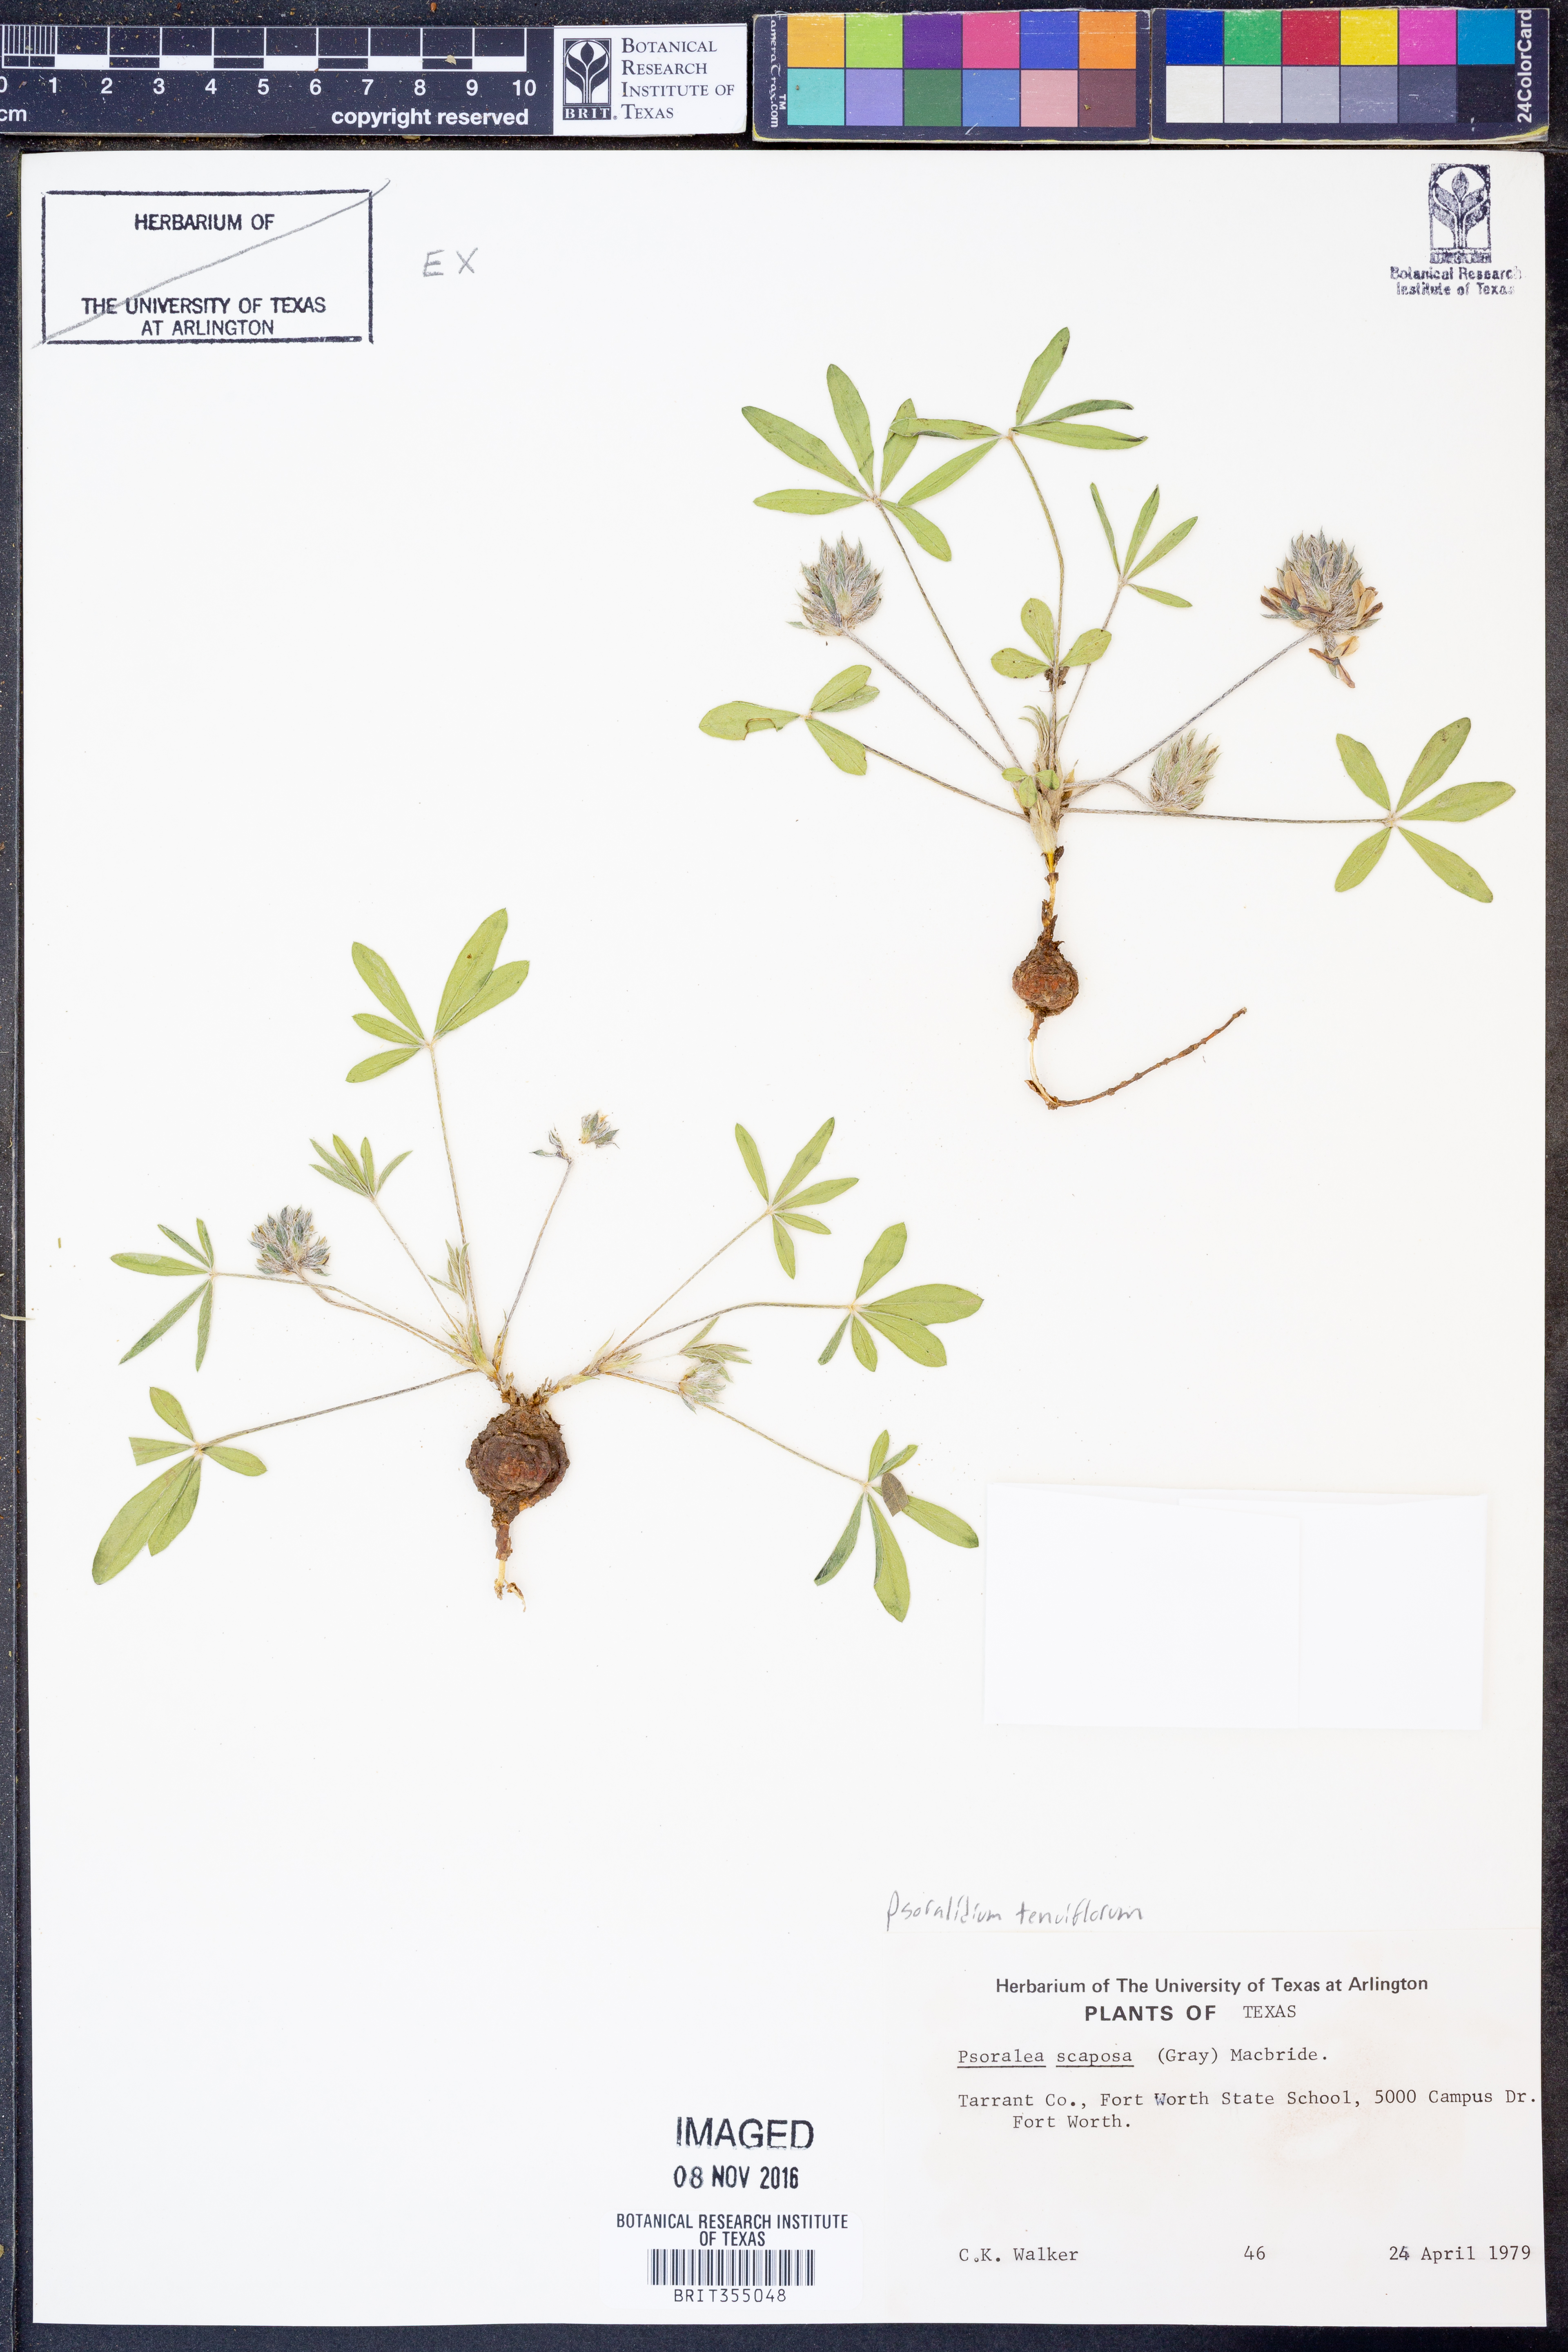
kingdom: Plantae
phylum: Tracheophyta
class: Magnoliopsida
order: Fabales
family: Fabaceae
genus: Pediomelum
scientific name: Pediomelum tenuiflorum
